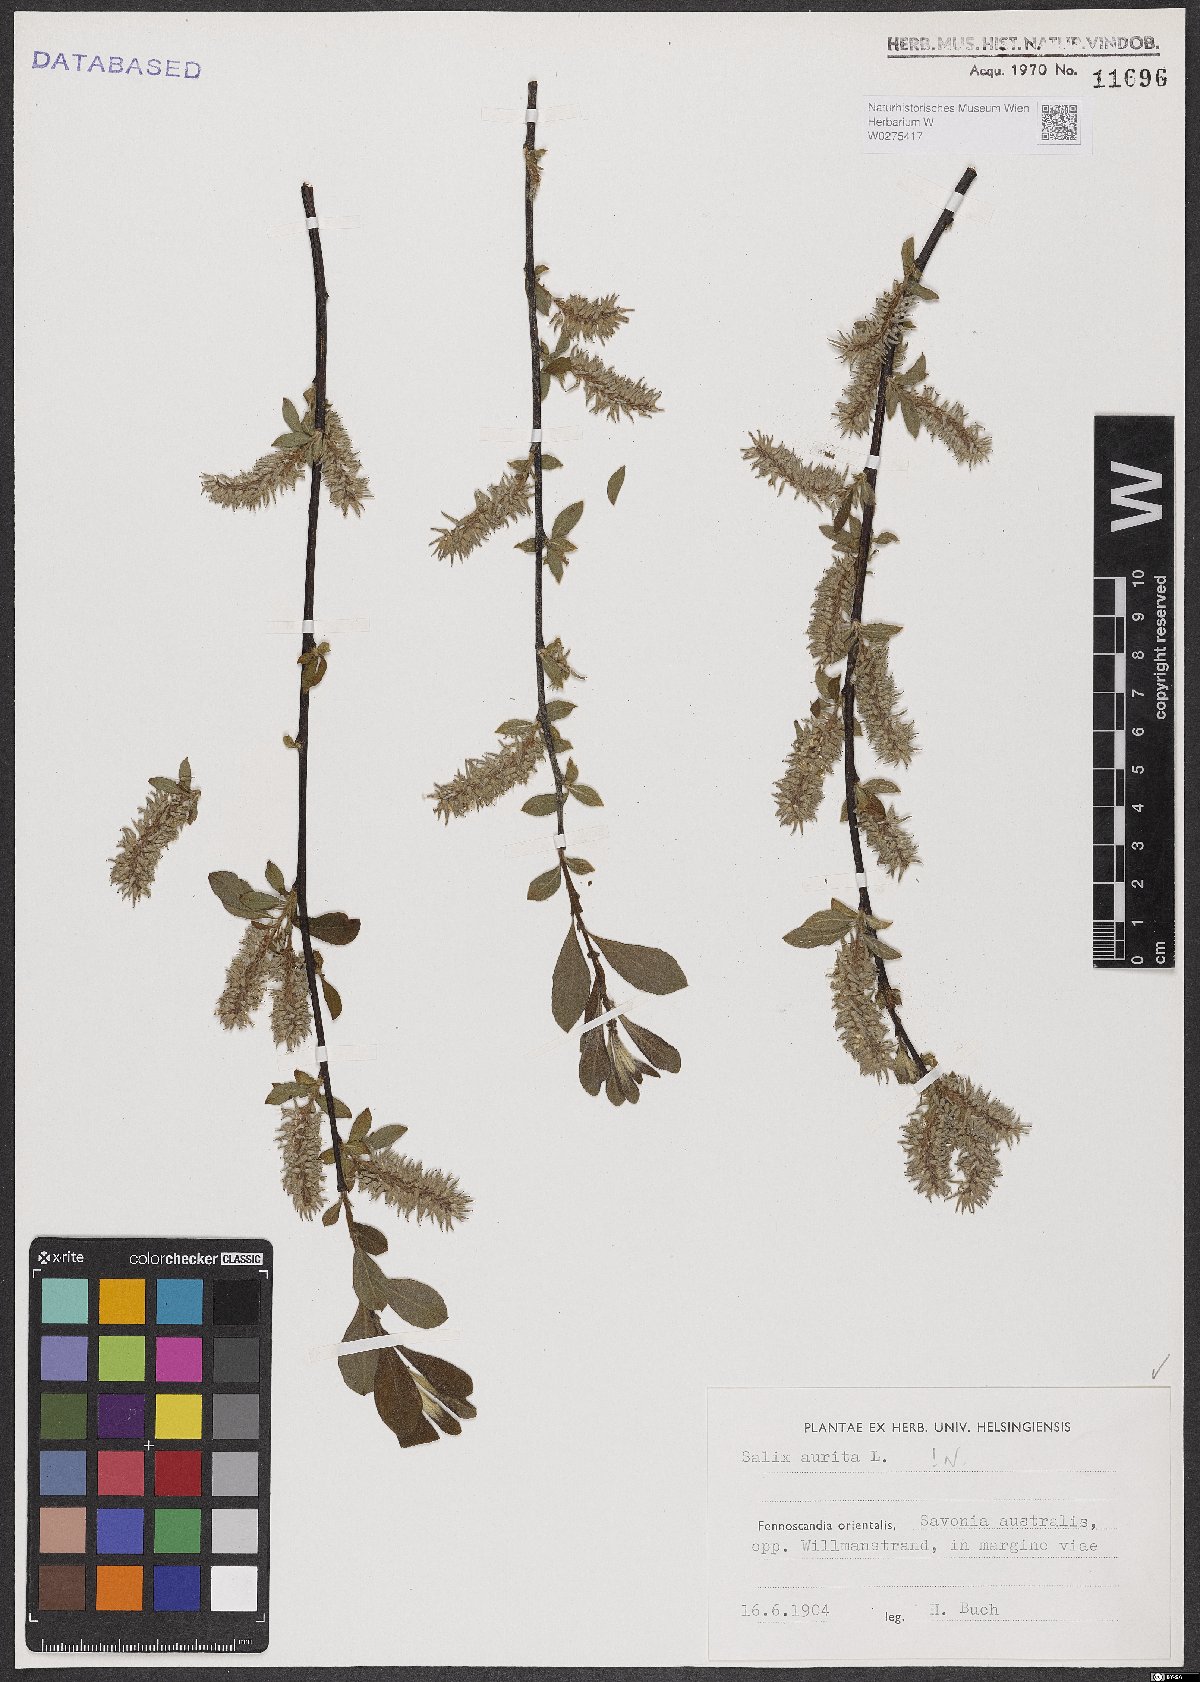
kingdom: Plantae
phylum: Tracheophyta
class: Magnoliopsida
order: Malpighiales
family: Salicaceae
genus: Salix
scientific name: Salix aurita
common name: Eared willow
